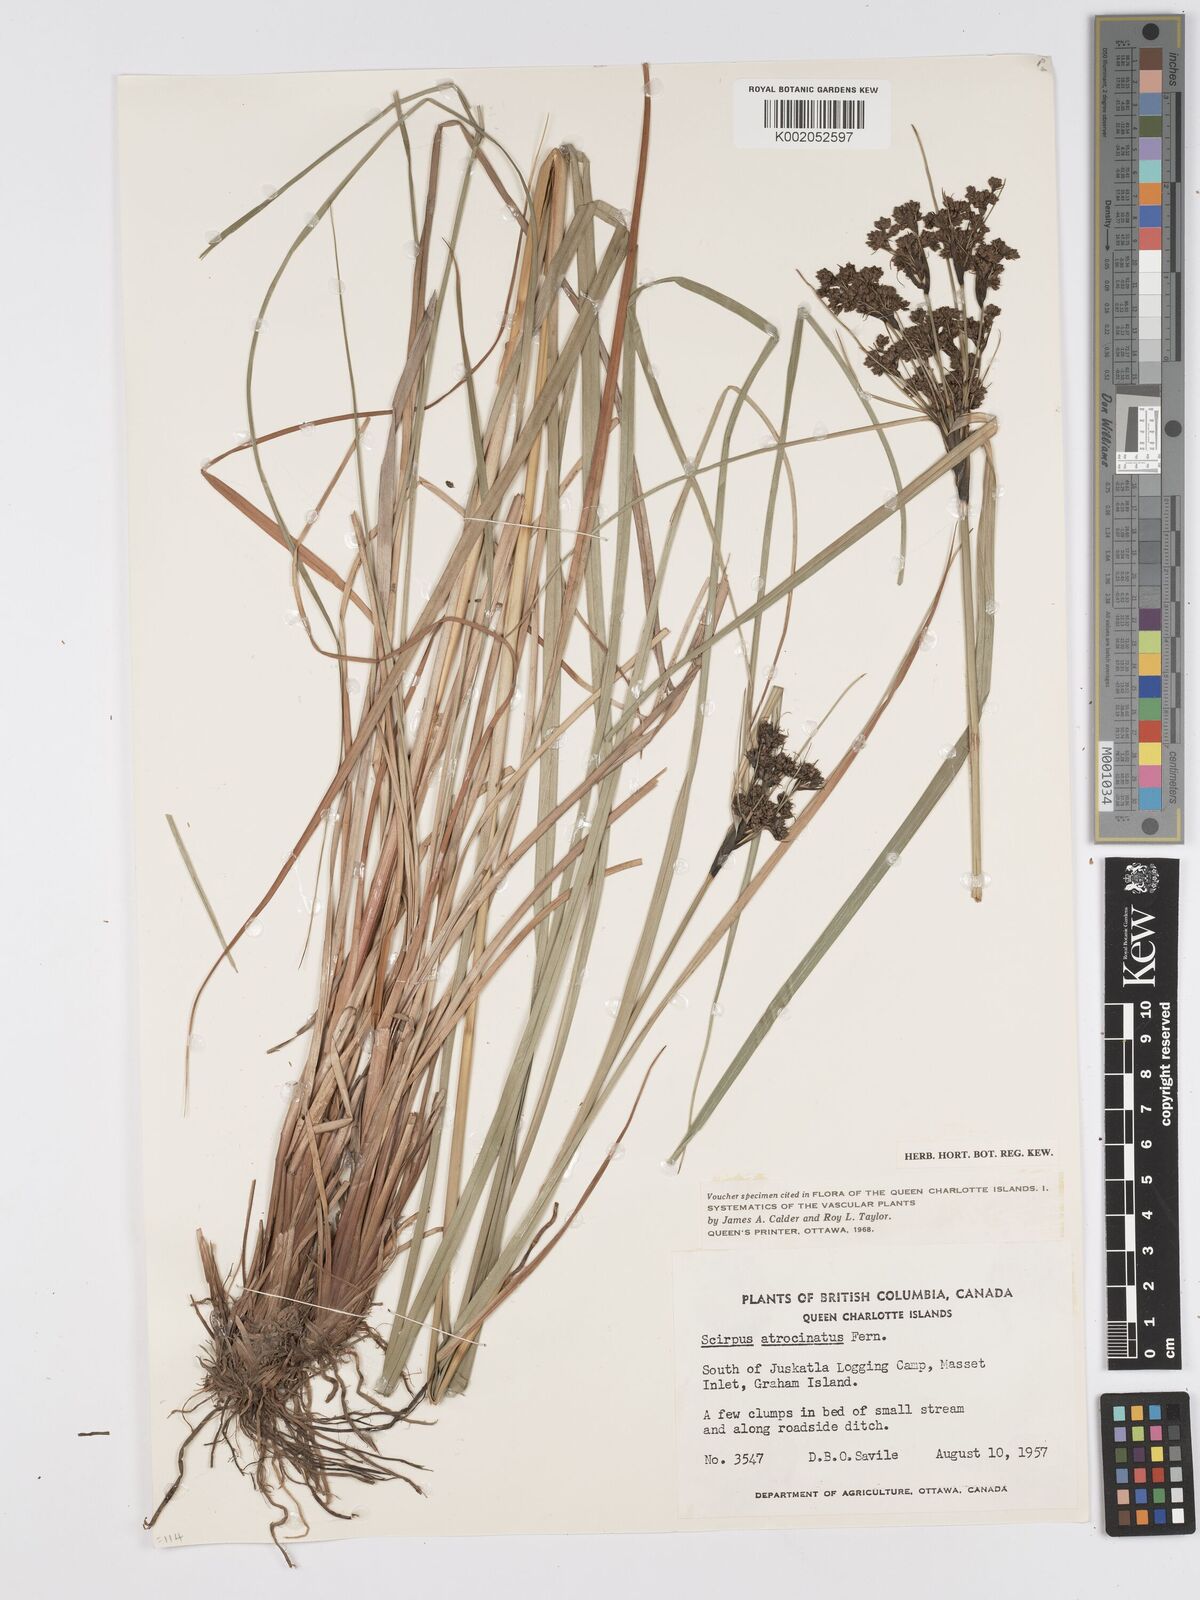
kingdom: Plantae
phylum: Tracheophyta
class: Liliopsida
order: Poales
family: Cyperaceae
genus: Scirpus
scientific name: Scirpus atrocinctus
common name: Black-girdled bulrush
